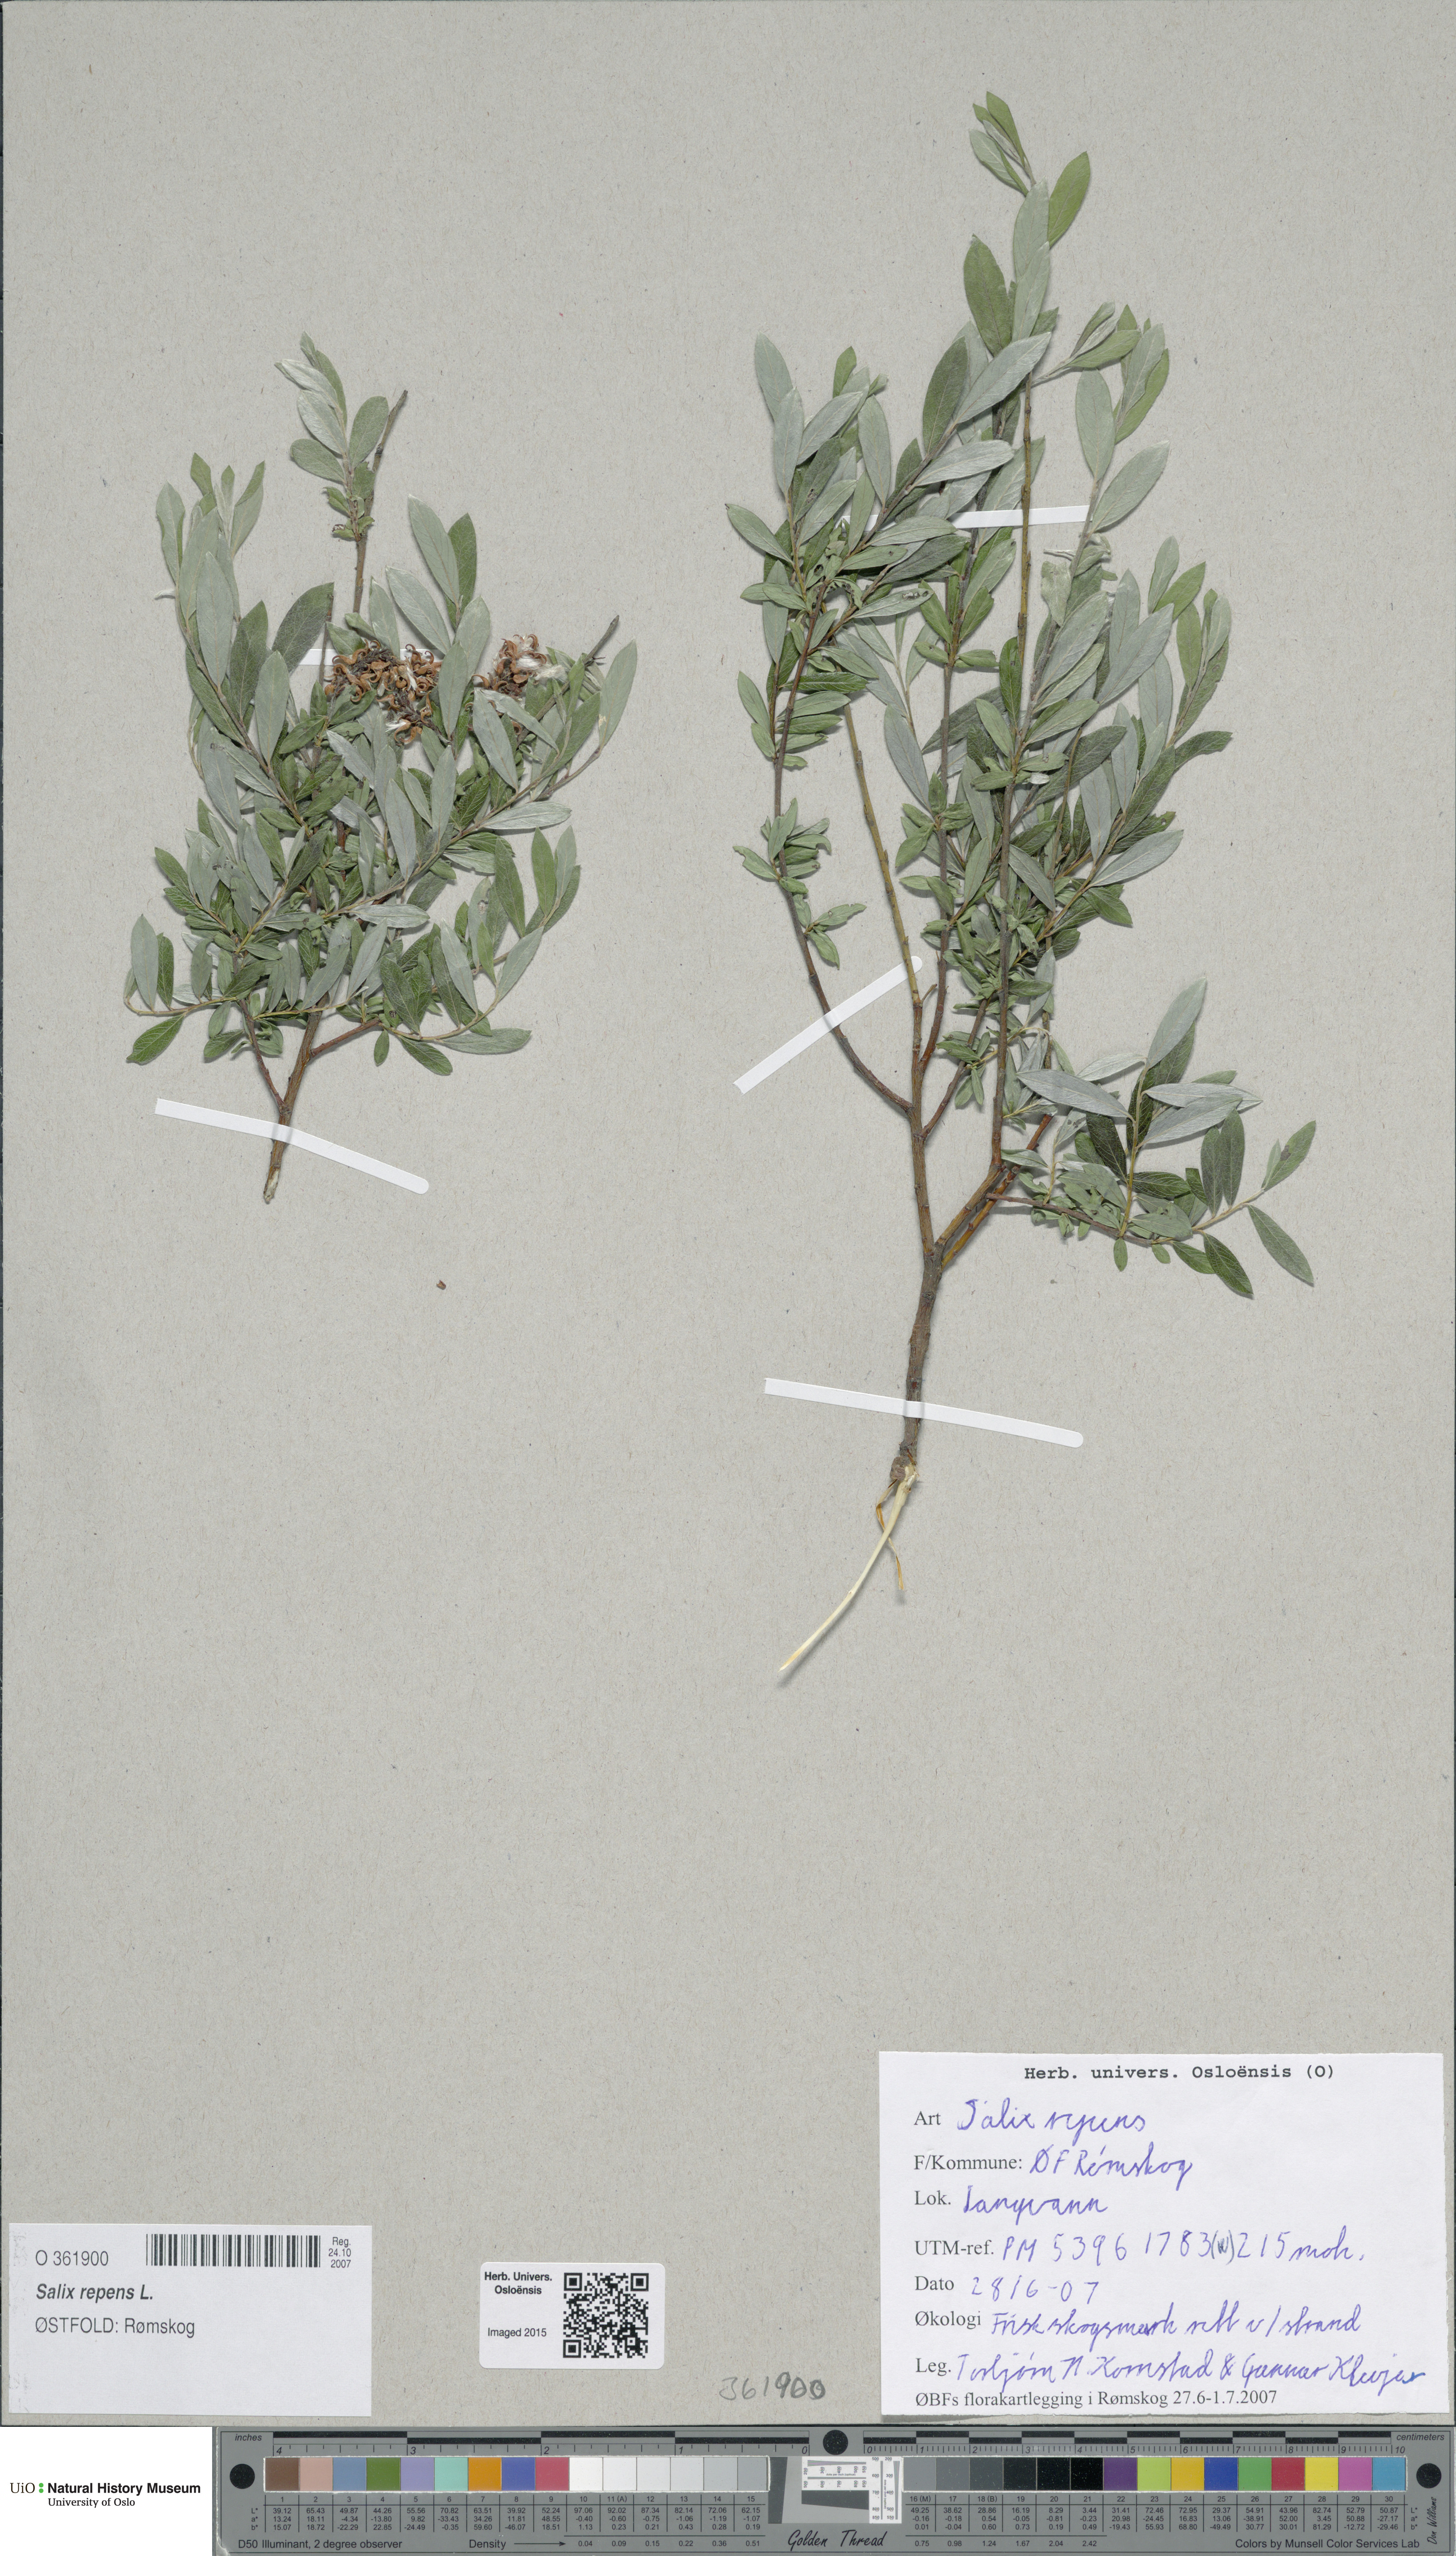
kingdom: Plantae
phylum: Tracheophyta
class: Magnoliopsida
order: Malpighiales
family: Salicaceae
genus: Salix
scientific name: Salix repens
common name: Creeping willow
